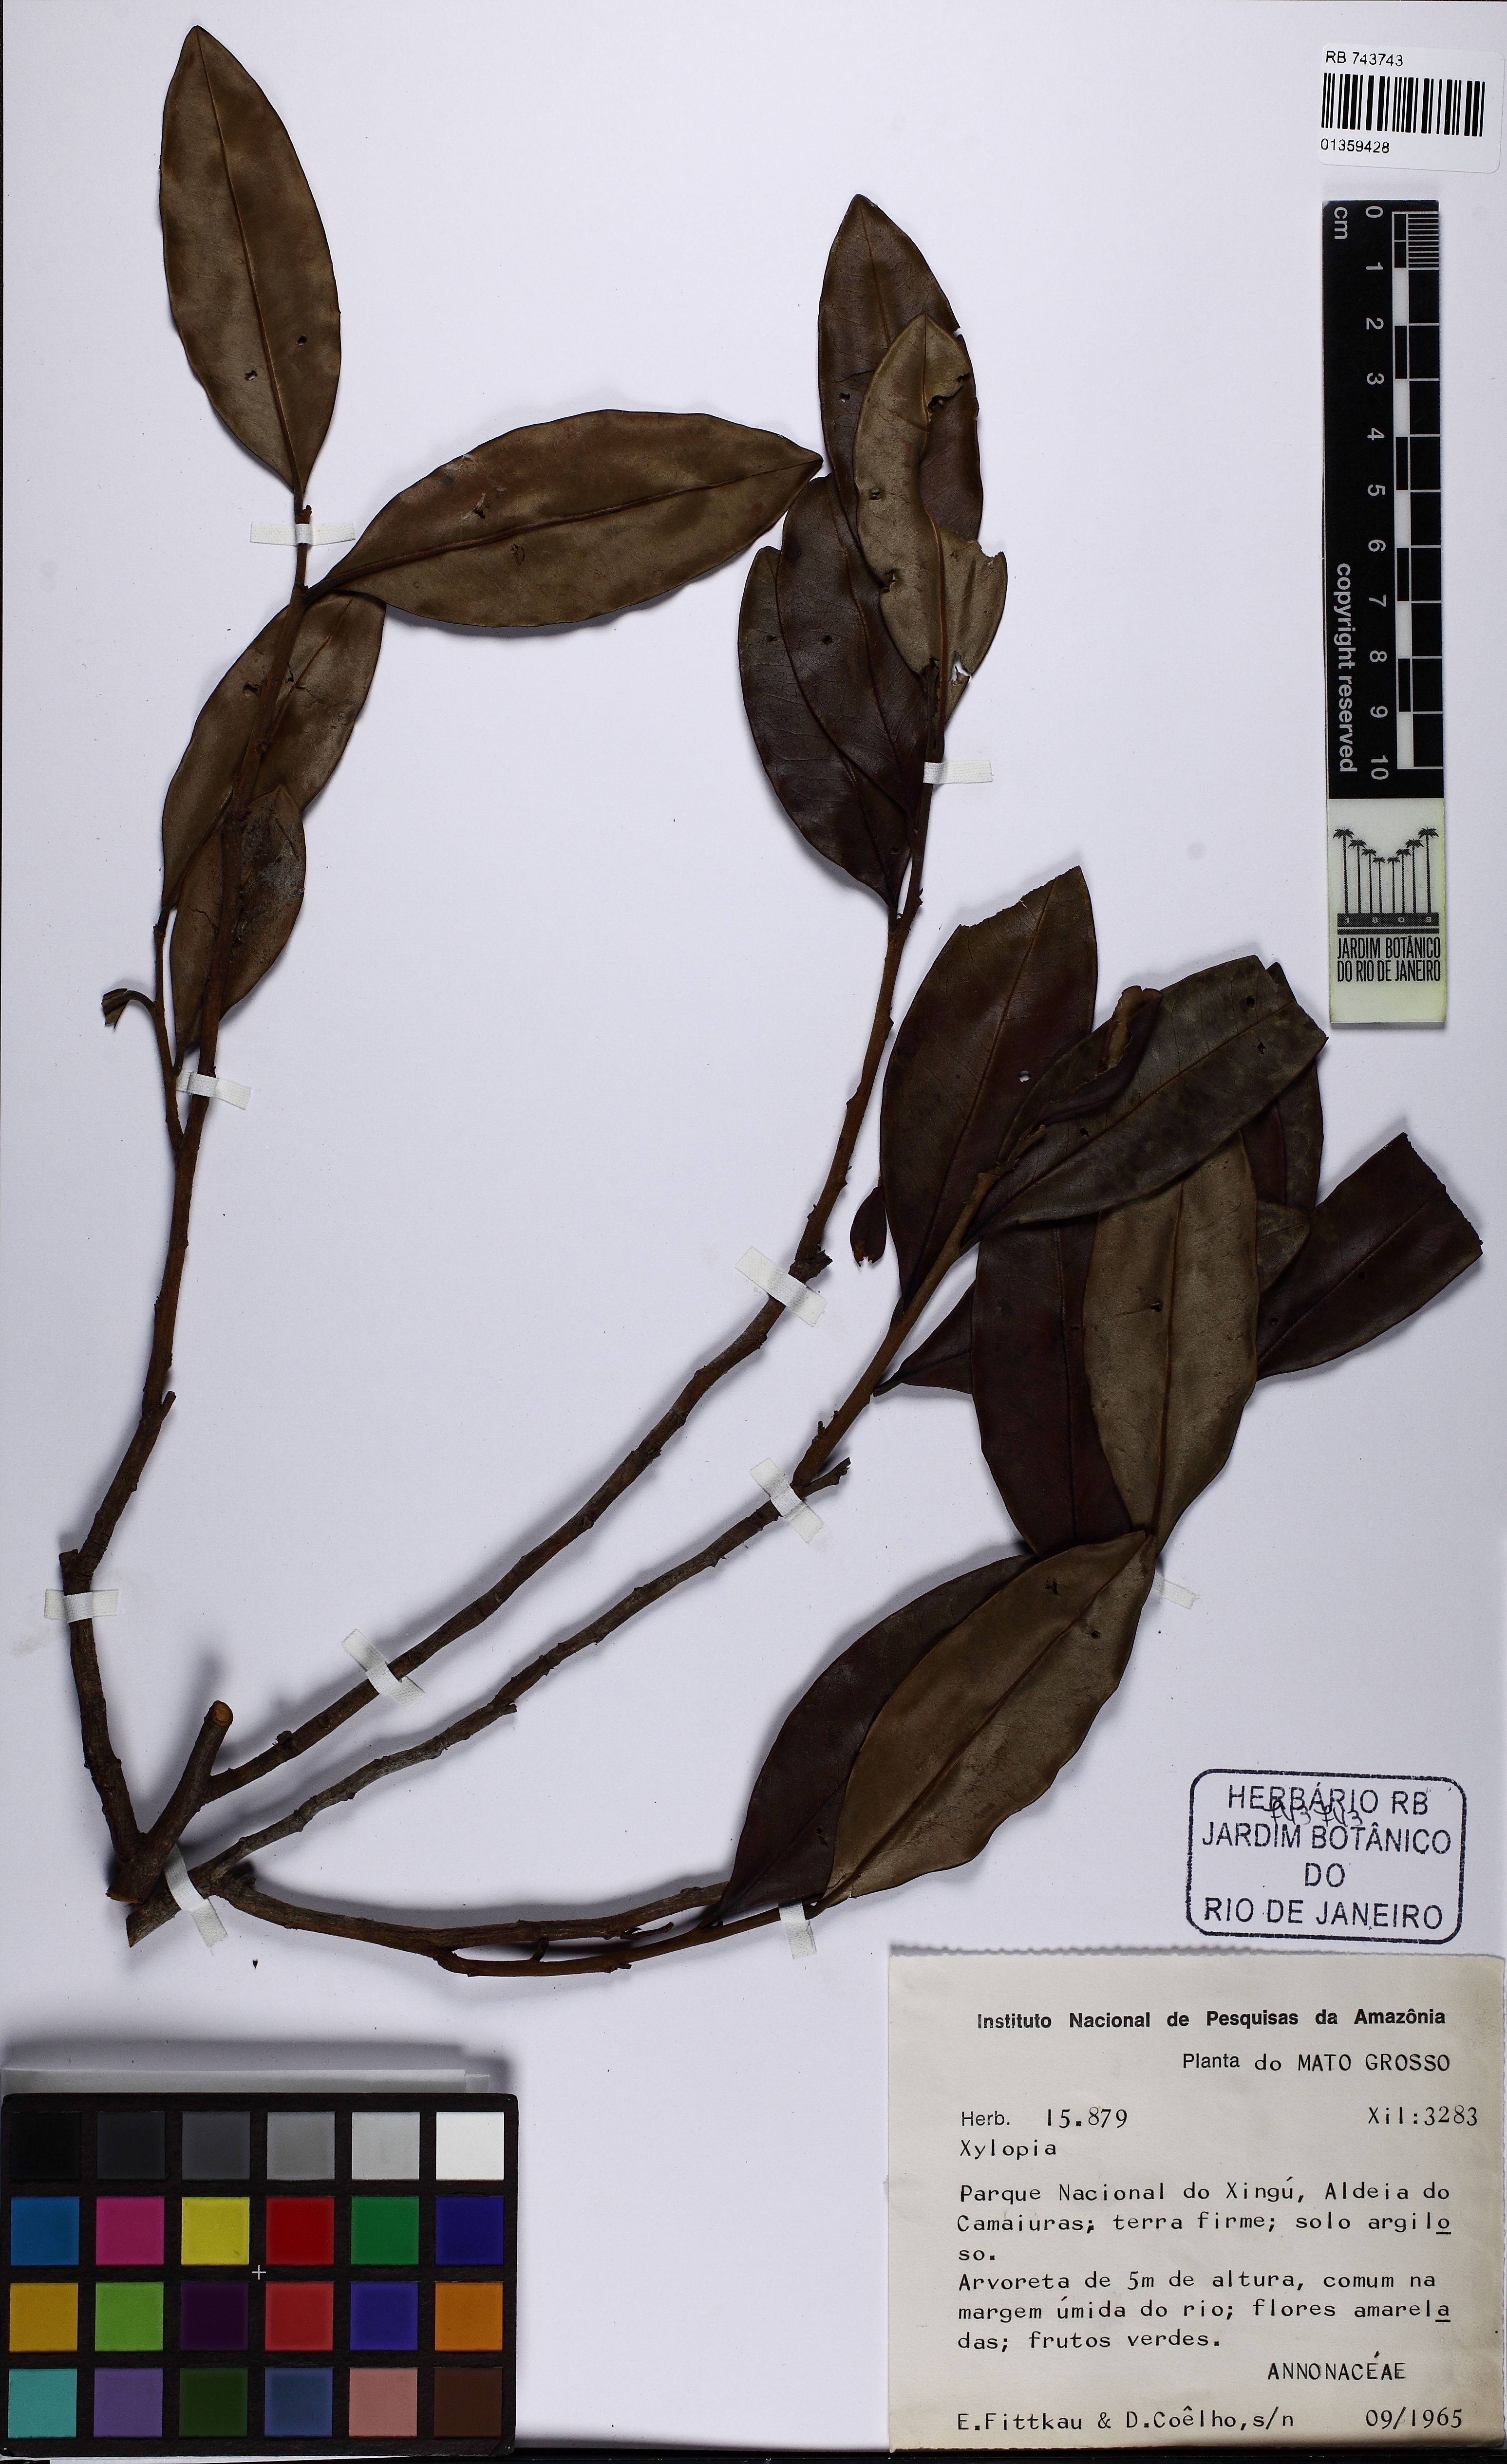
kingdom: Plantae
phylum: Tracheophyta
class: Magnoliopsida
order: Magnoliales
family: Annonaceae
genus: Xylopia
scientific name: Xylopia
